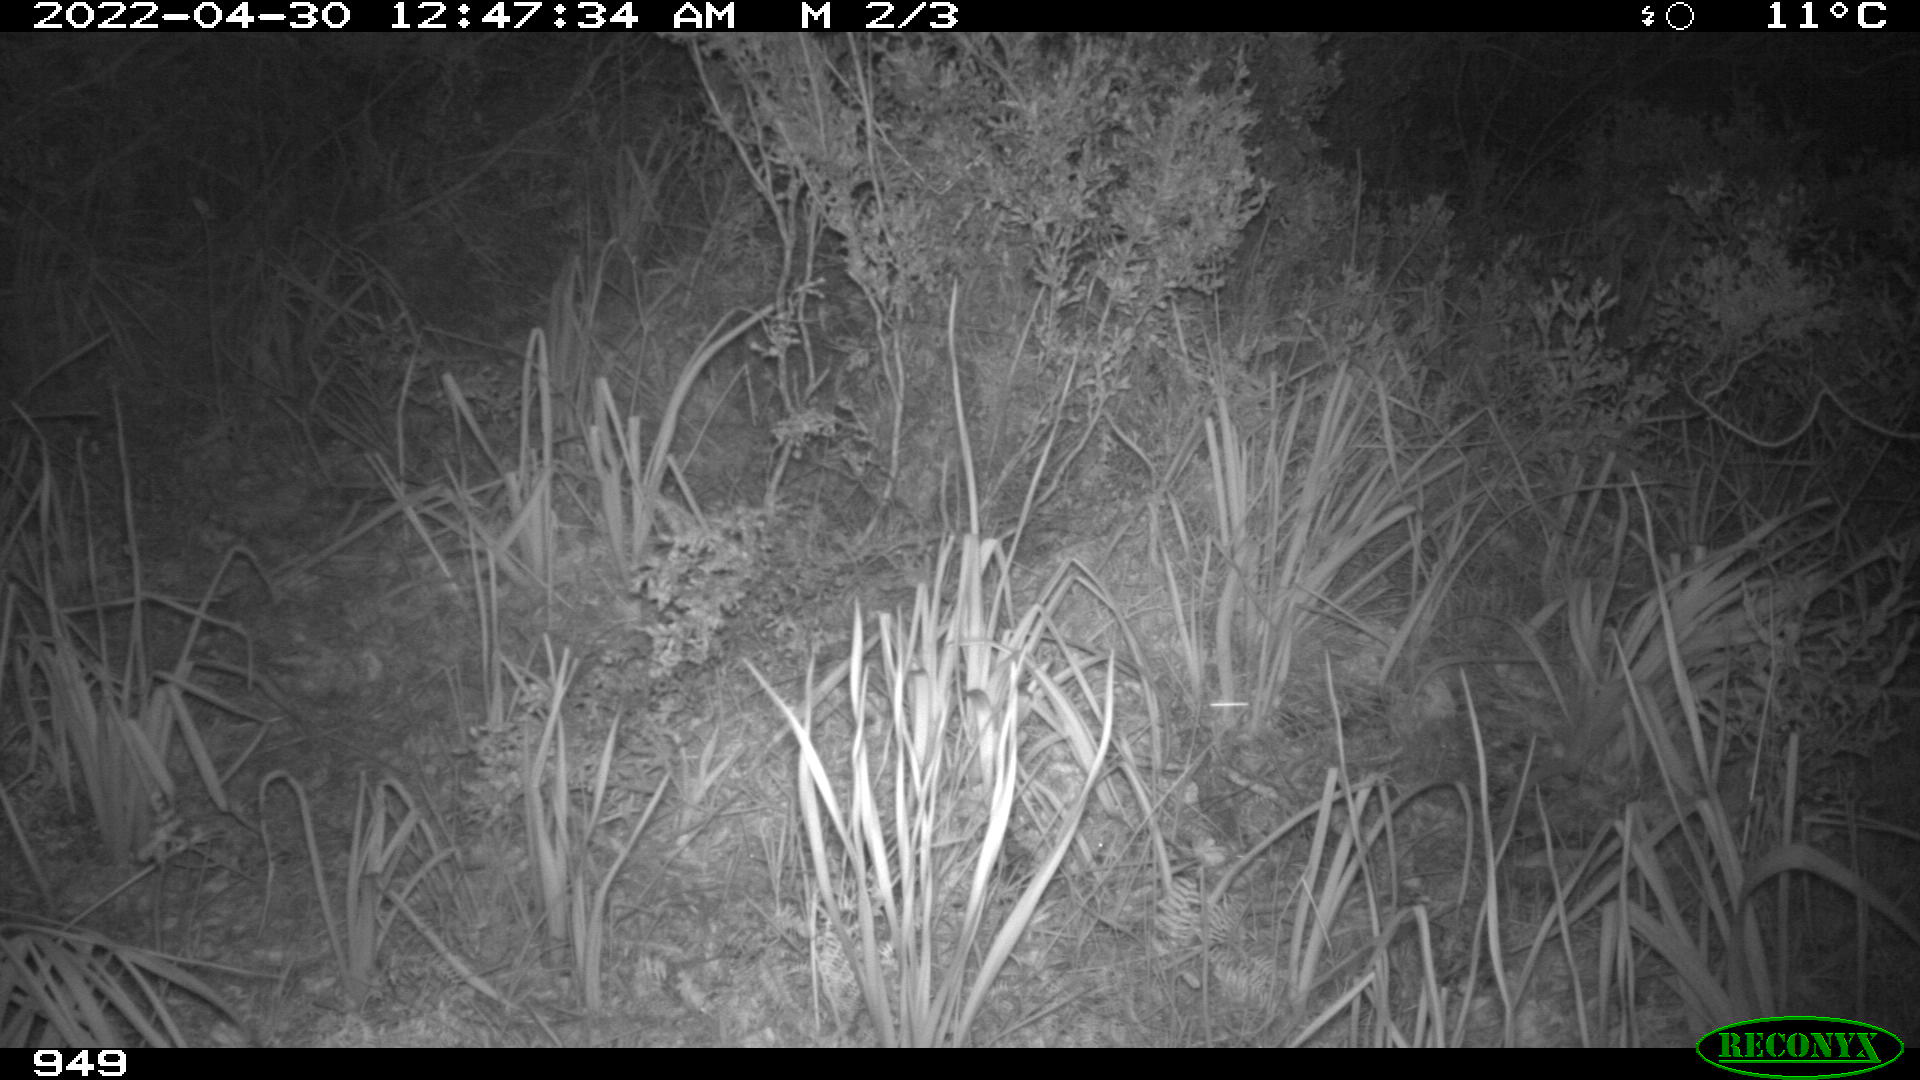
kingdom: Animalia
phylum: Chordata
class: Mammalia
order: Artiodactyla
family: Suidae
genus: Sus
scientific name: Sus scrofa
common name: Wild boar
